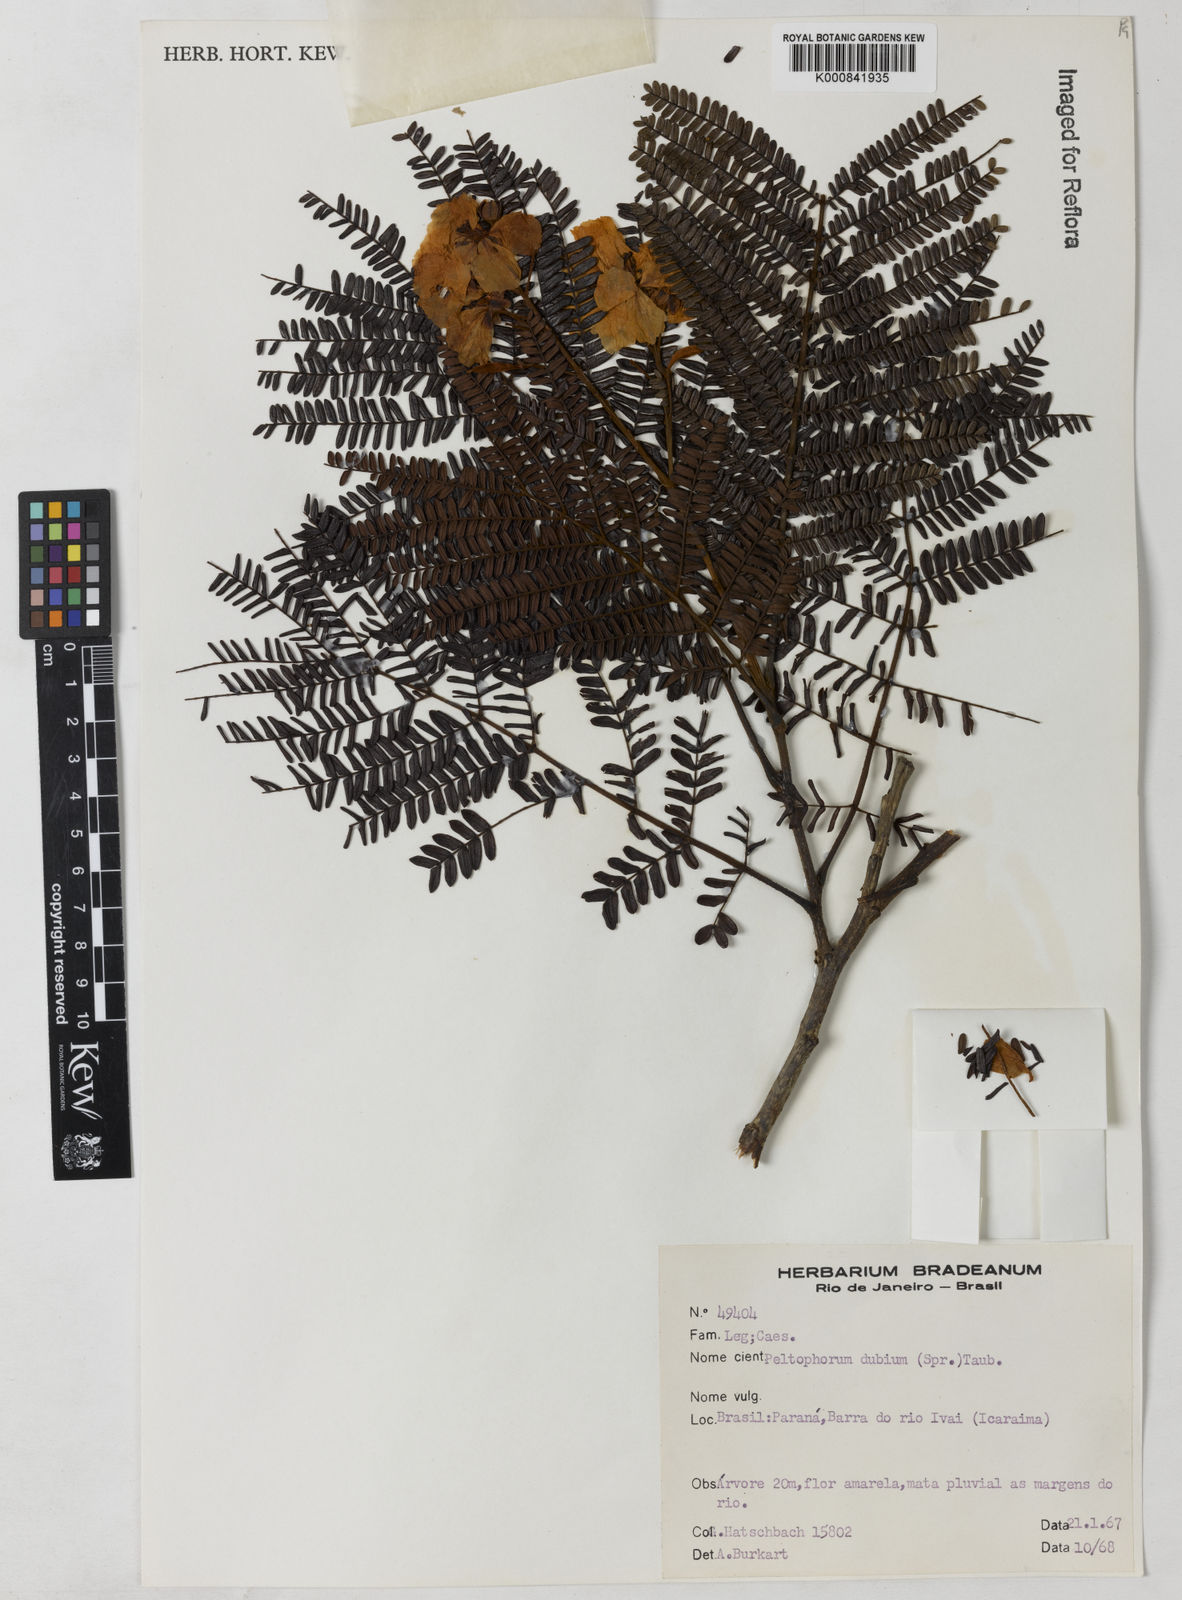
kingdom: Plantae
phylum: Tracheophyta
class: Magnoliopsida
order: Fabales
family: Fabaceae
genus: Peltophorum
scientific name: Peltophorum dubium
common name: Horsebush
